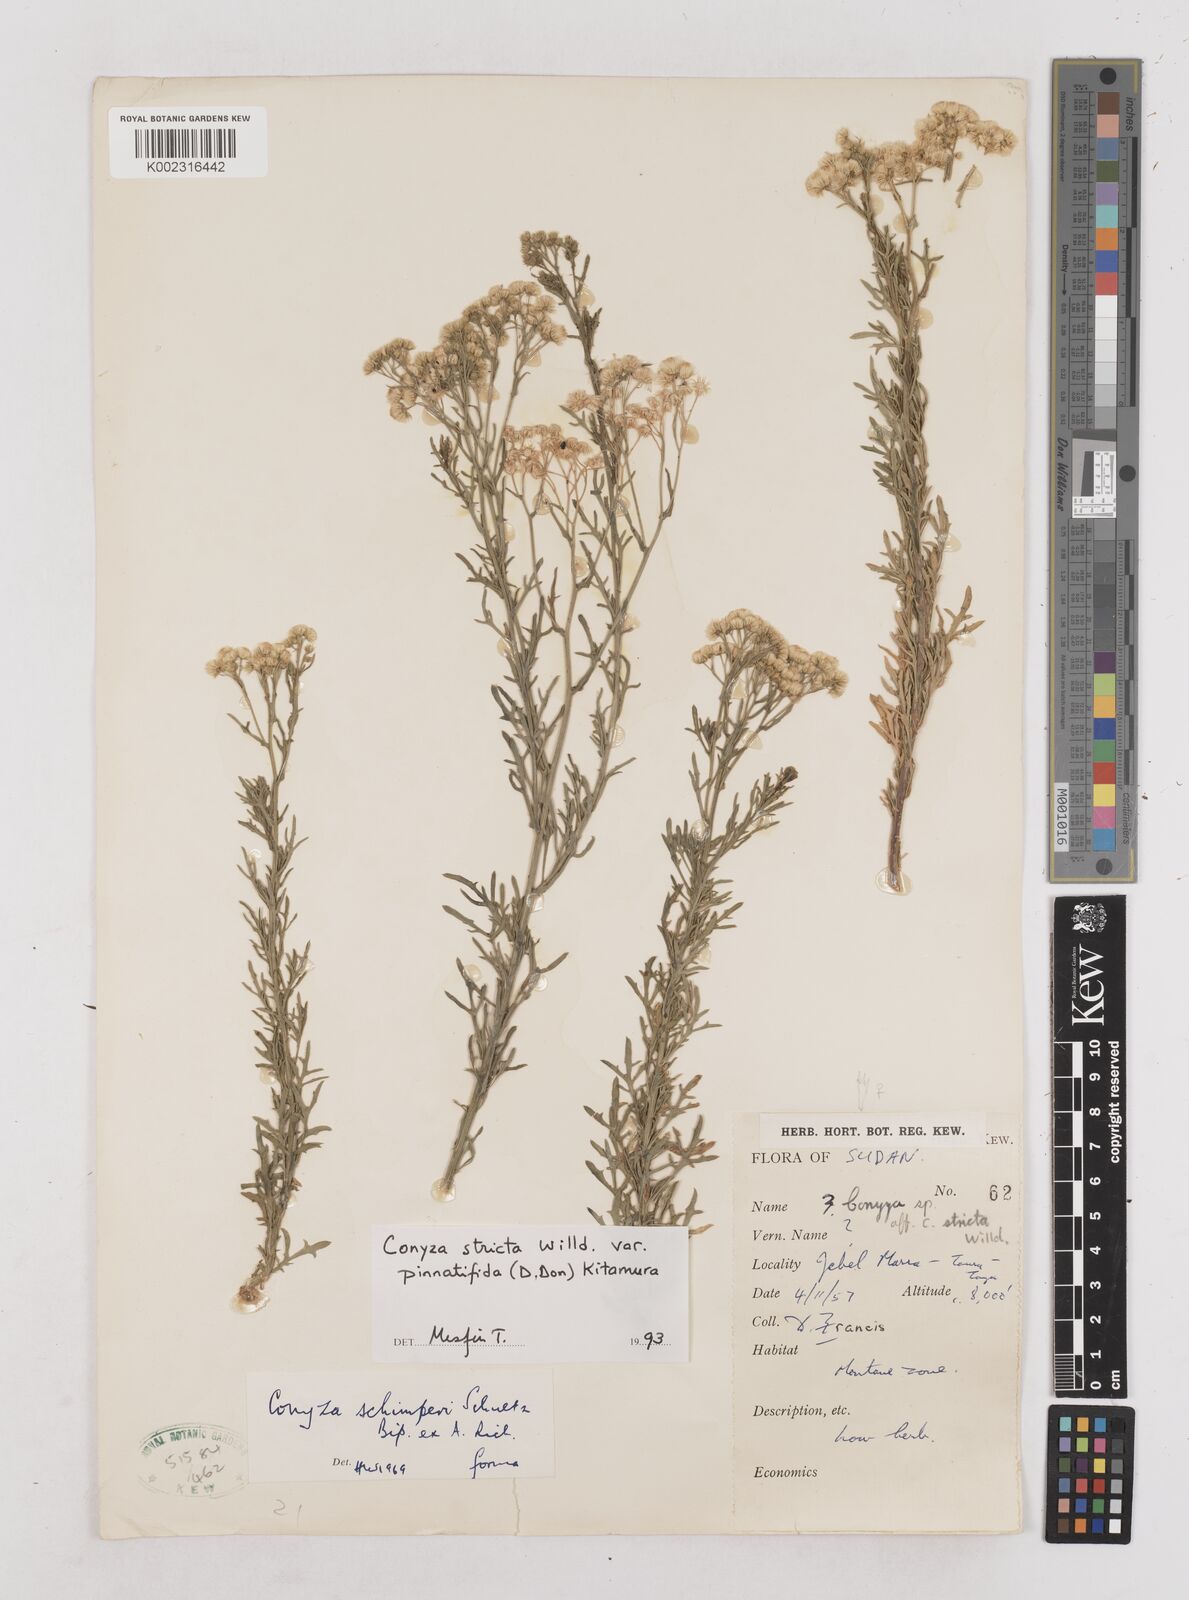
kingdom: Plantae
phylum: Tracheophyta
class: Magnoliopsida
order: Asterales
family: Asteraceae
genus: Nidorella
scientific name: Nidorella triloba
